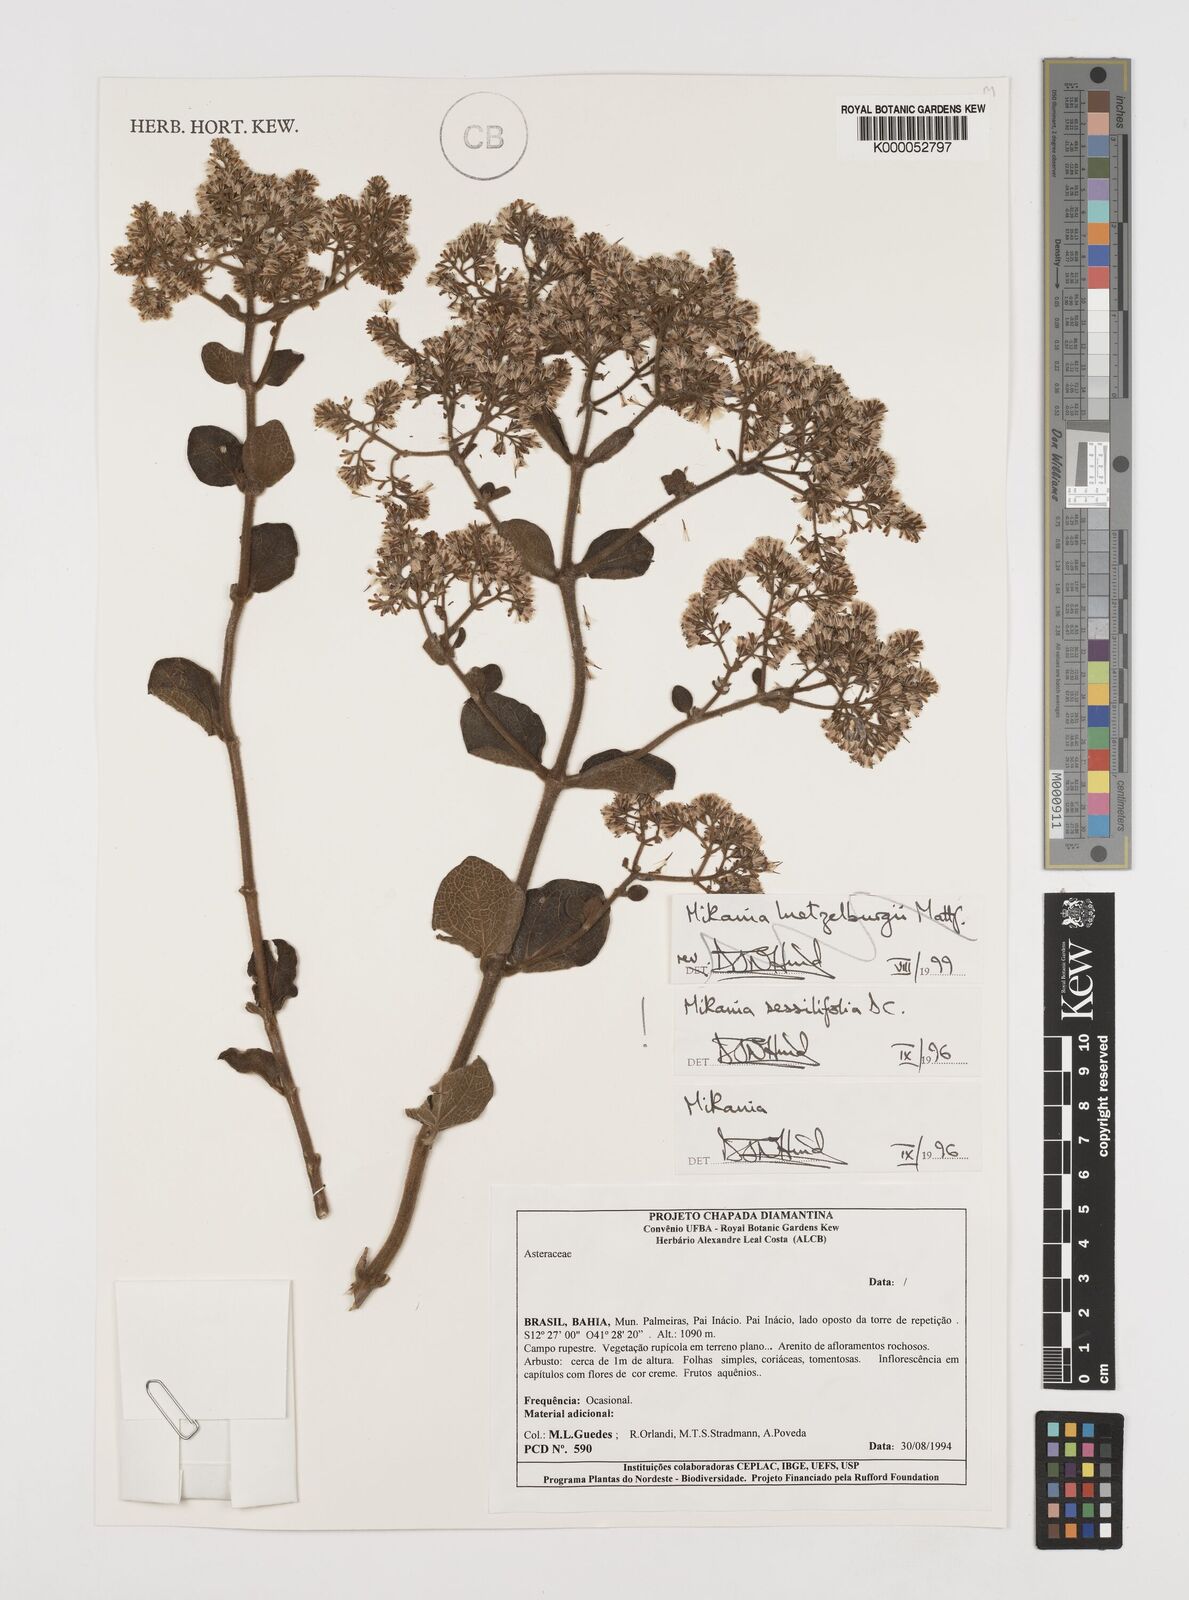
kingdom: Plantae
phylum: Tracheophyta
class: Magnoliopsida
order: Asterales
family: Asteraceae
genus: Mikania
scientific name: Mikania sessilifolia
